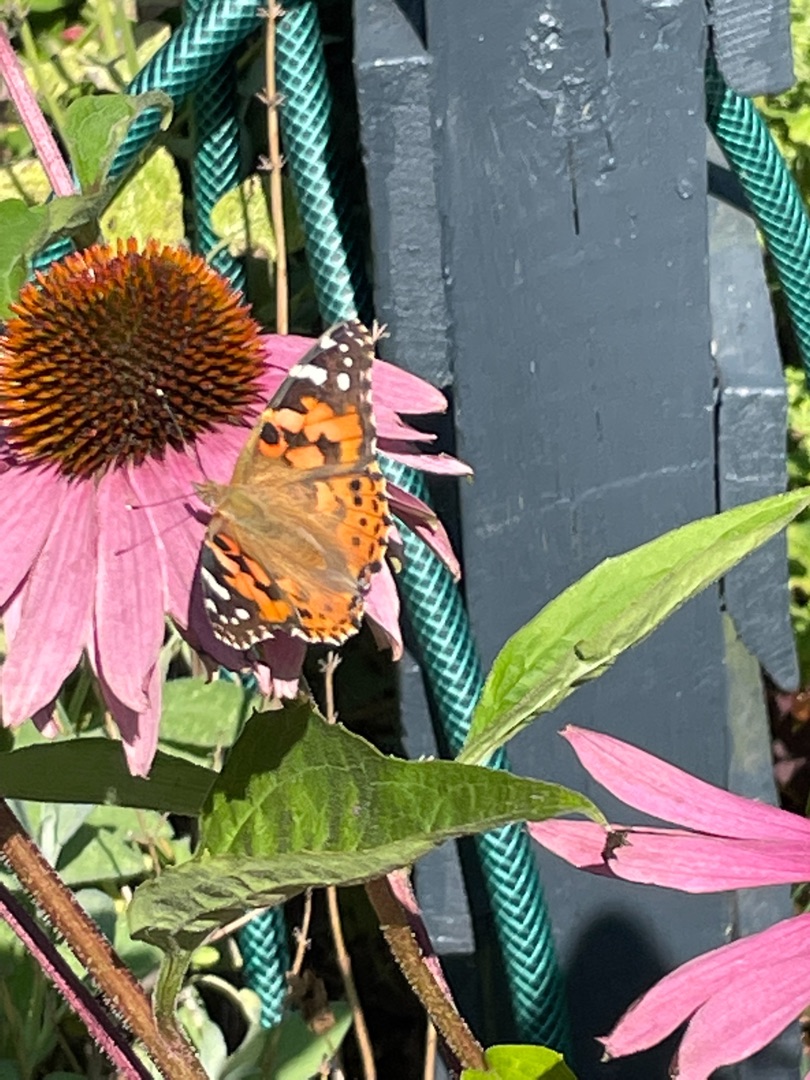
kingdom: Animalia
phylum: Arthropoda
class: Insecta
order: Lepidoptera
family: Nymphalidae
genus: Vanessa
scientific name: Vanessa cardui
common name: Tidselsommerfugl
